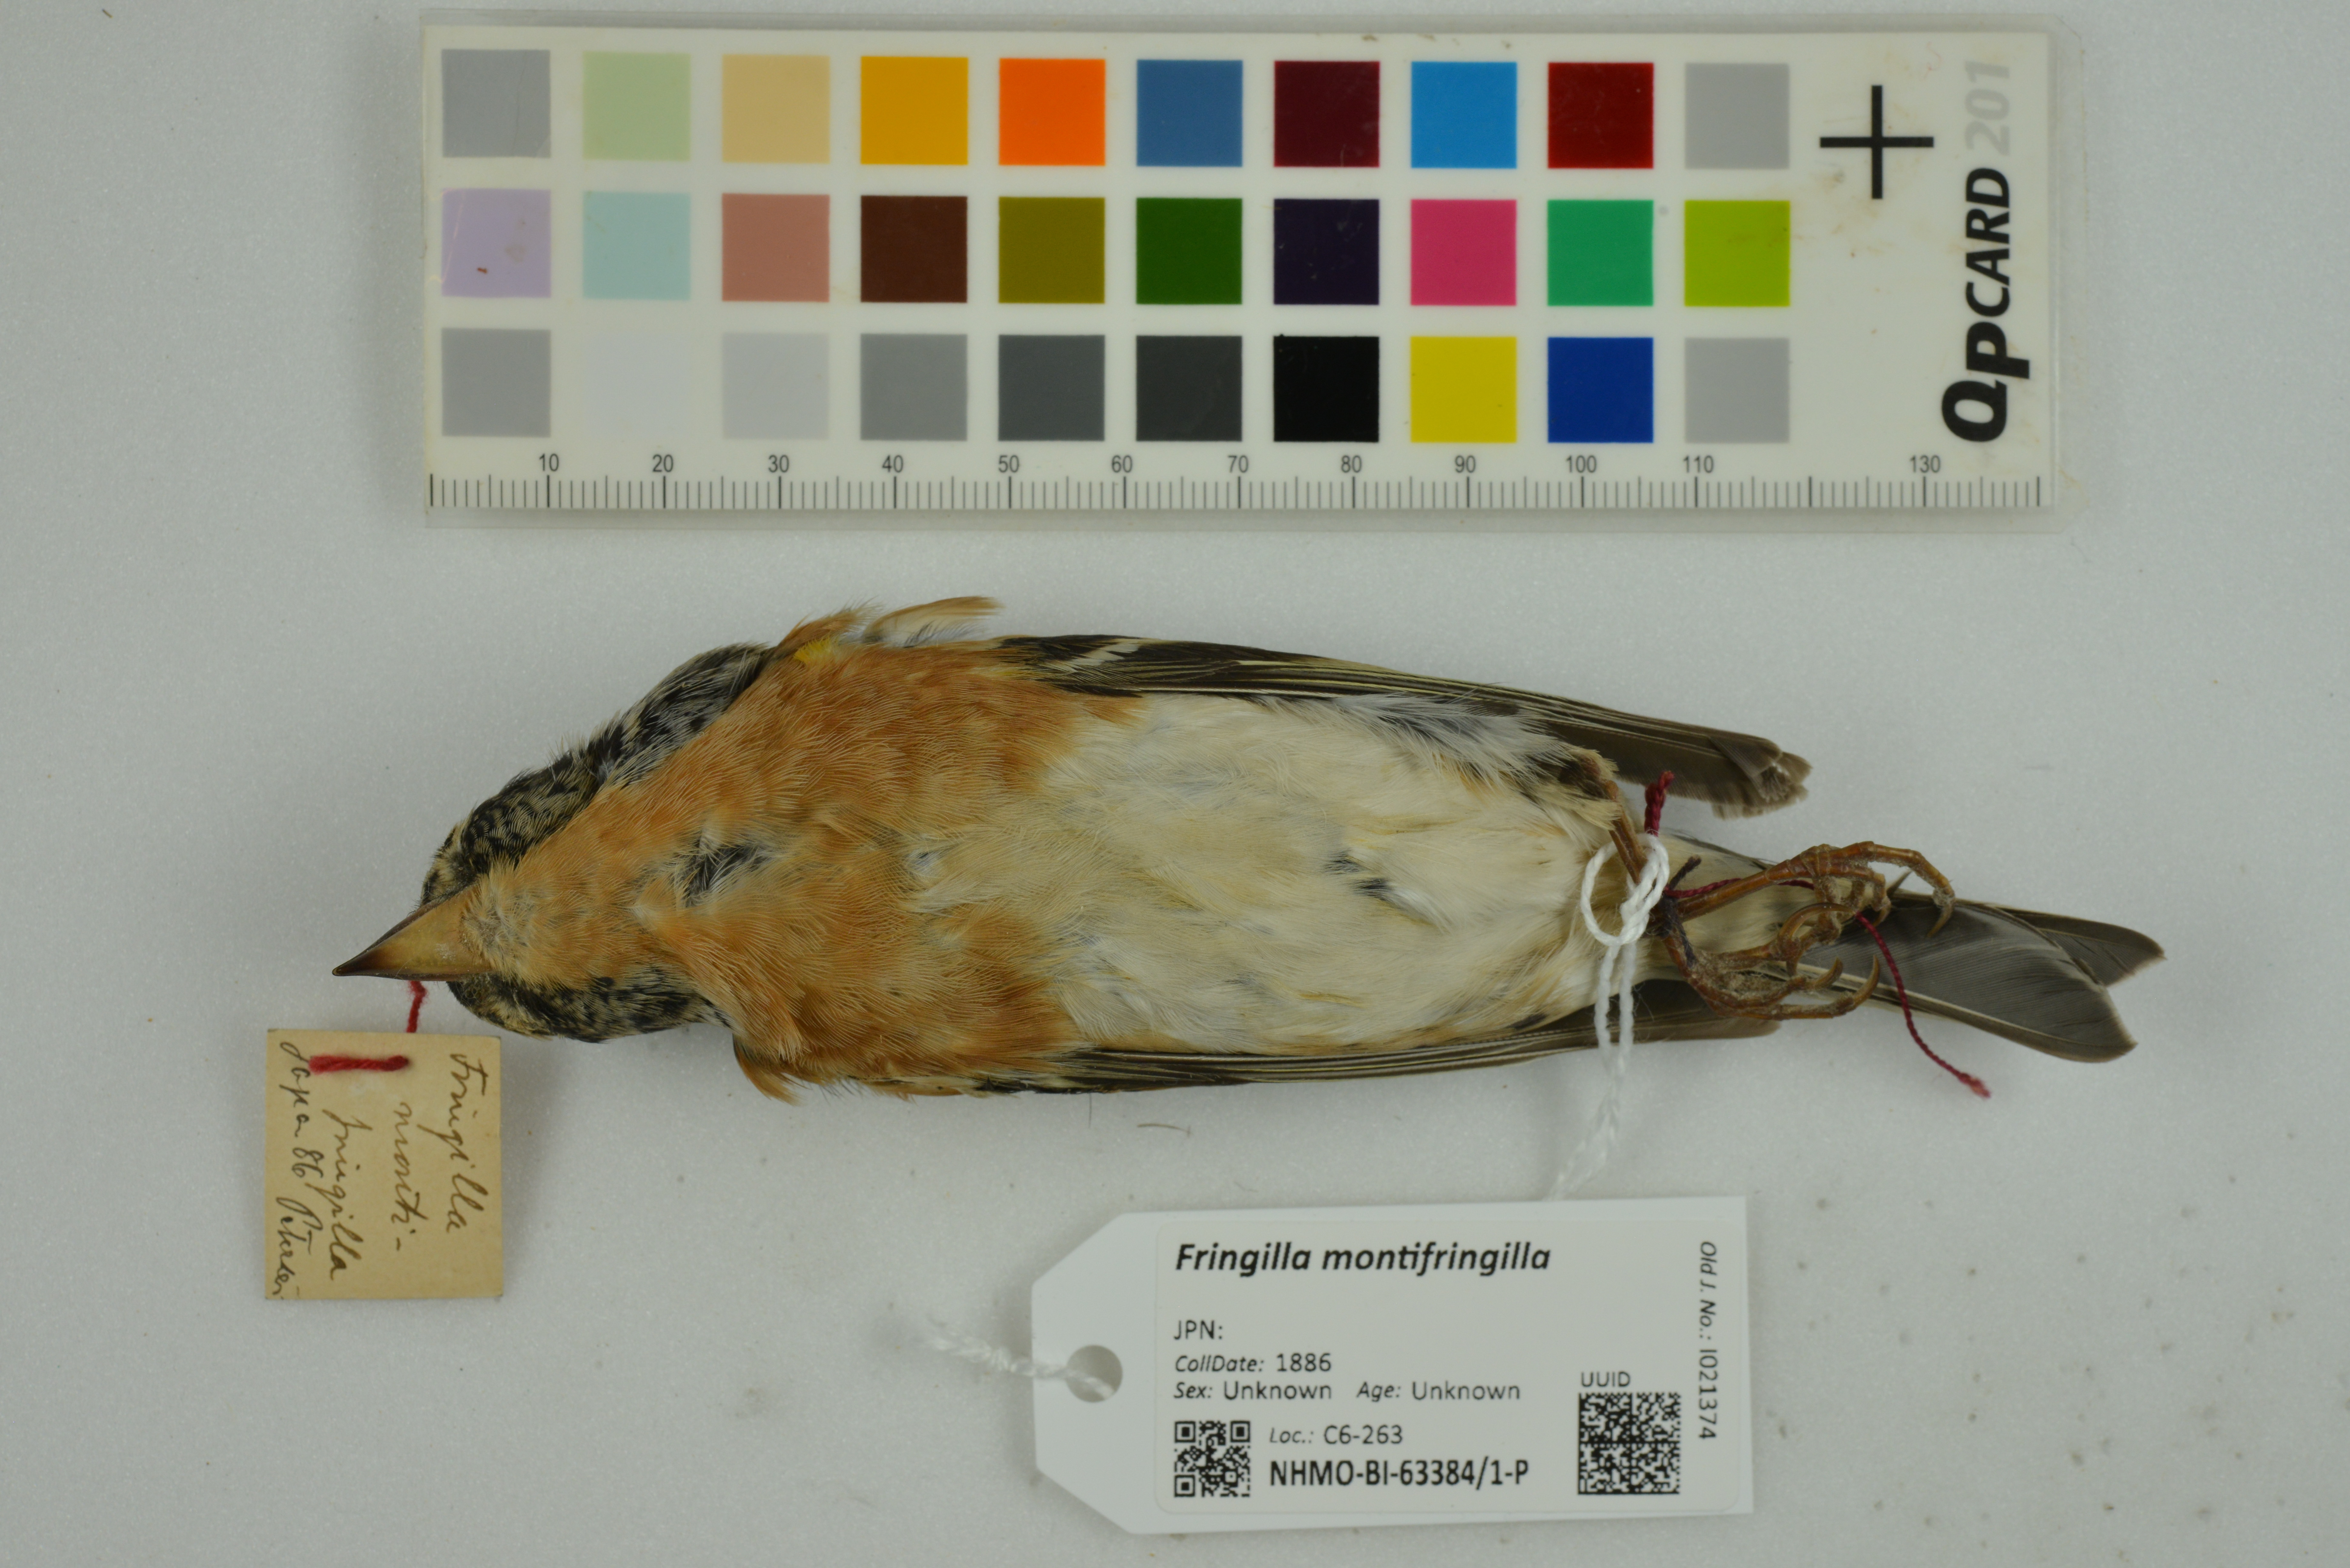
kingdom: Animalia
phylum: Chordata
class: Aves
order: Passeriformes
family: Fringillidae
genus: Fringilla
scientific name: Fringilla montifringilla
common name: Brambling
